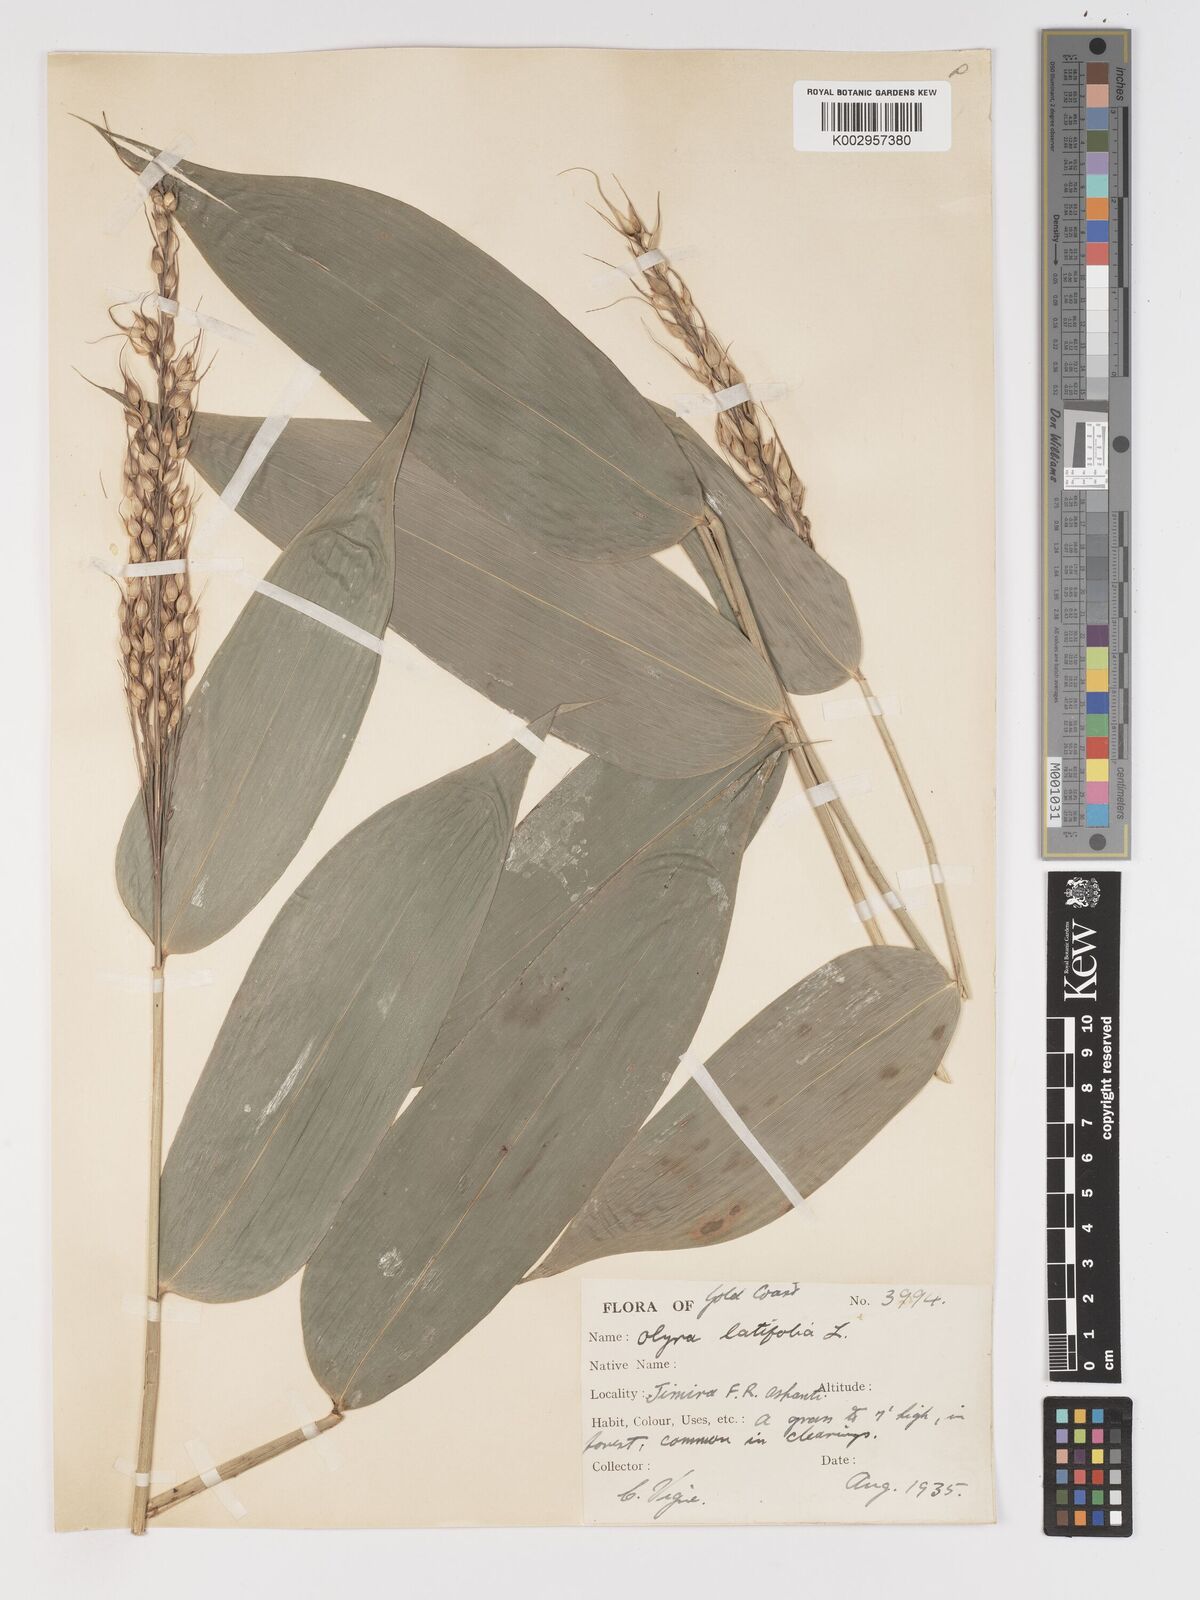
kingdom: Plantae
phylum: Tracheophyta
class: Liliopsida
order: Poales
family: Poaceae
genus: Olyra
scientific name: Olyra latifolia
